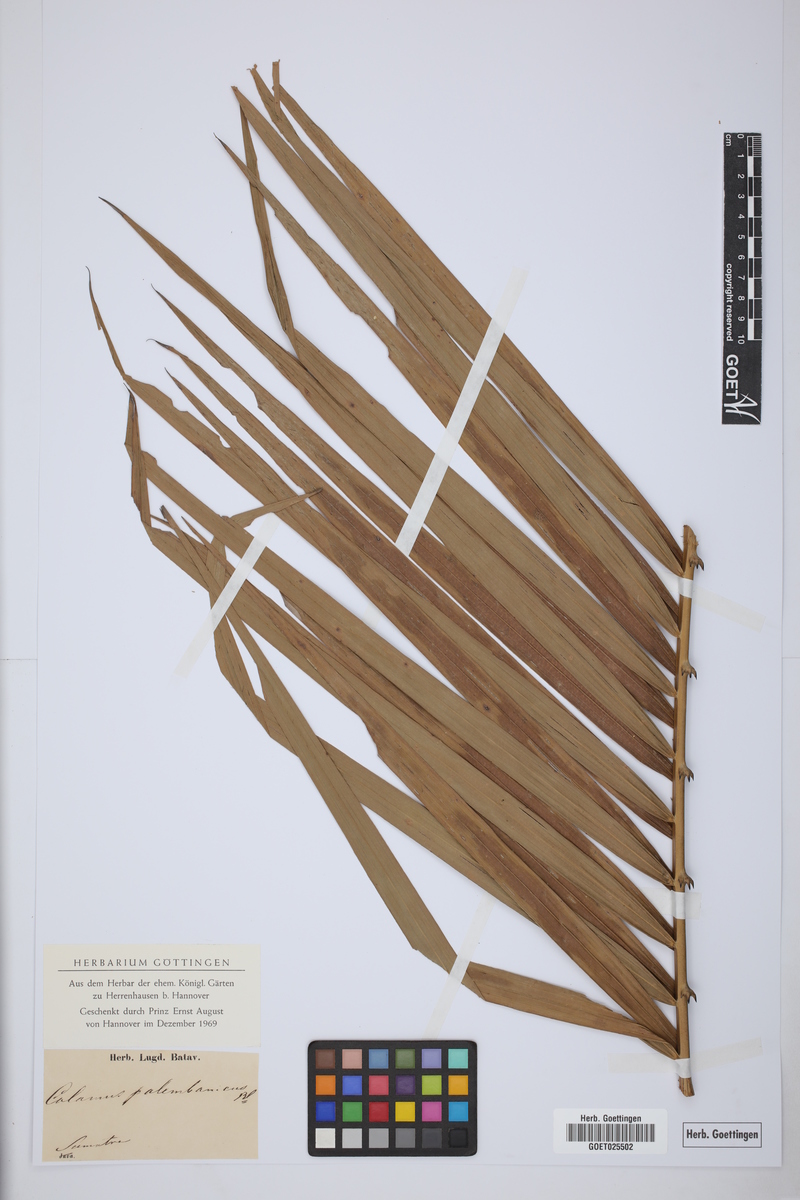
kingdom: Plantae
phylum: Tracheophyta
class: Liliopsida
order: Arecales
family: Arecaceae
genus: Calamus
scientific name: Calamus melanochaetes
